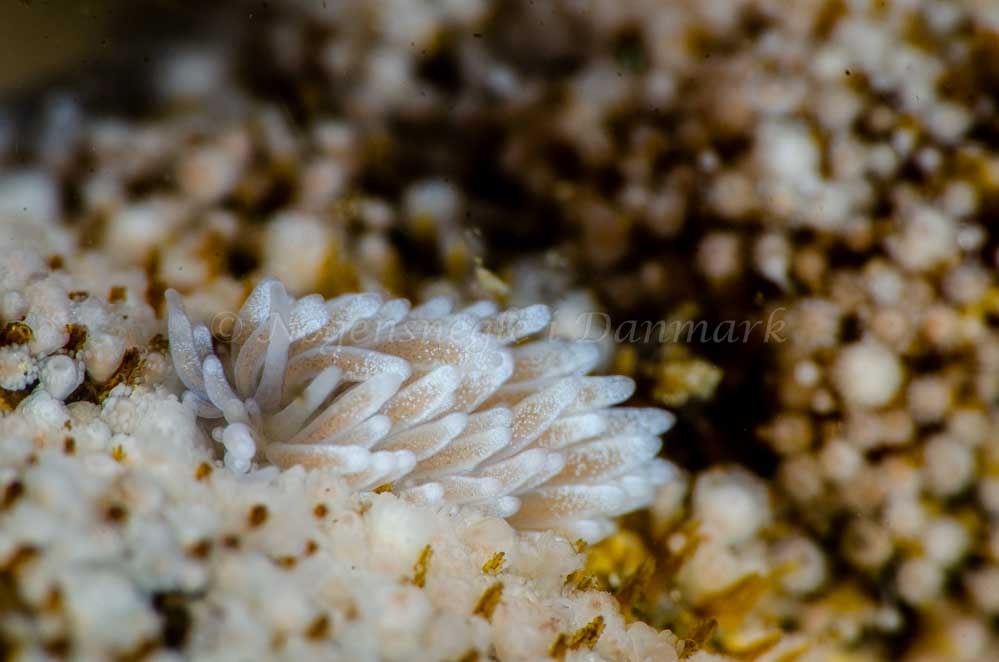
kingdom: Animalia
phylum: Mollusca
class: Gastropoda
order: Nudibranchia
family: Cuthonidae
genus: Cuthona
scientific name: Cuthona nana
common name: Eremittrådsnegl
